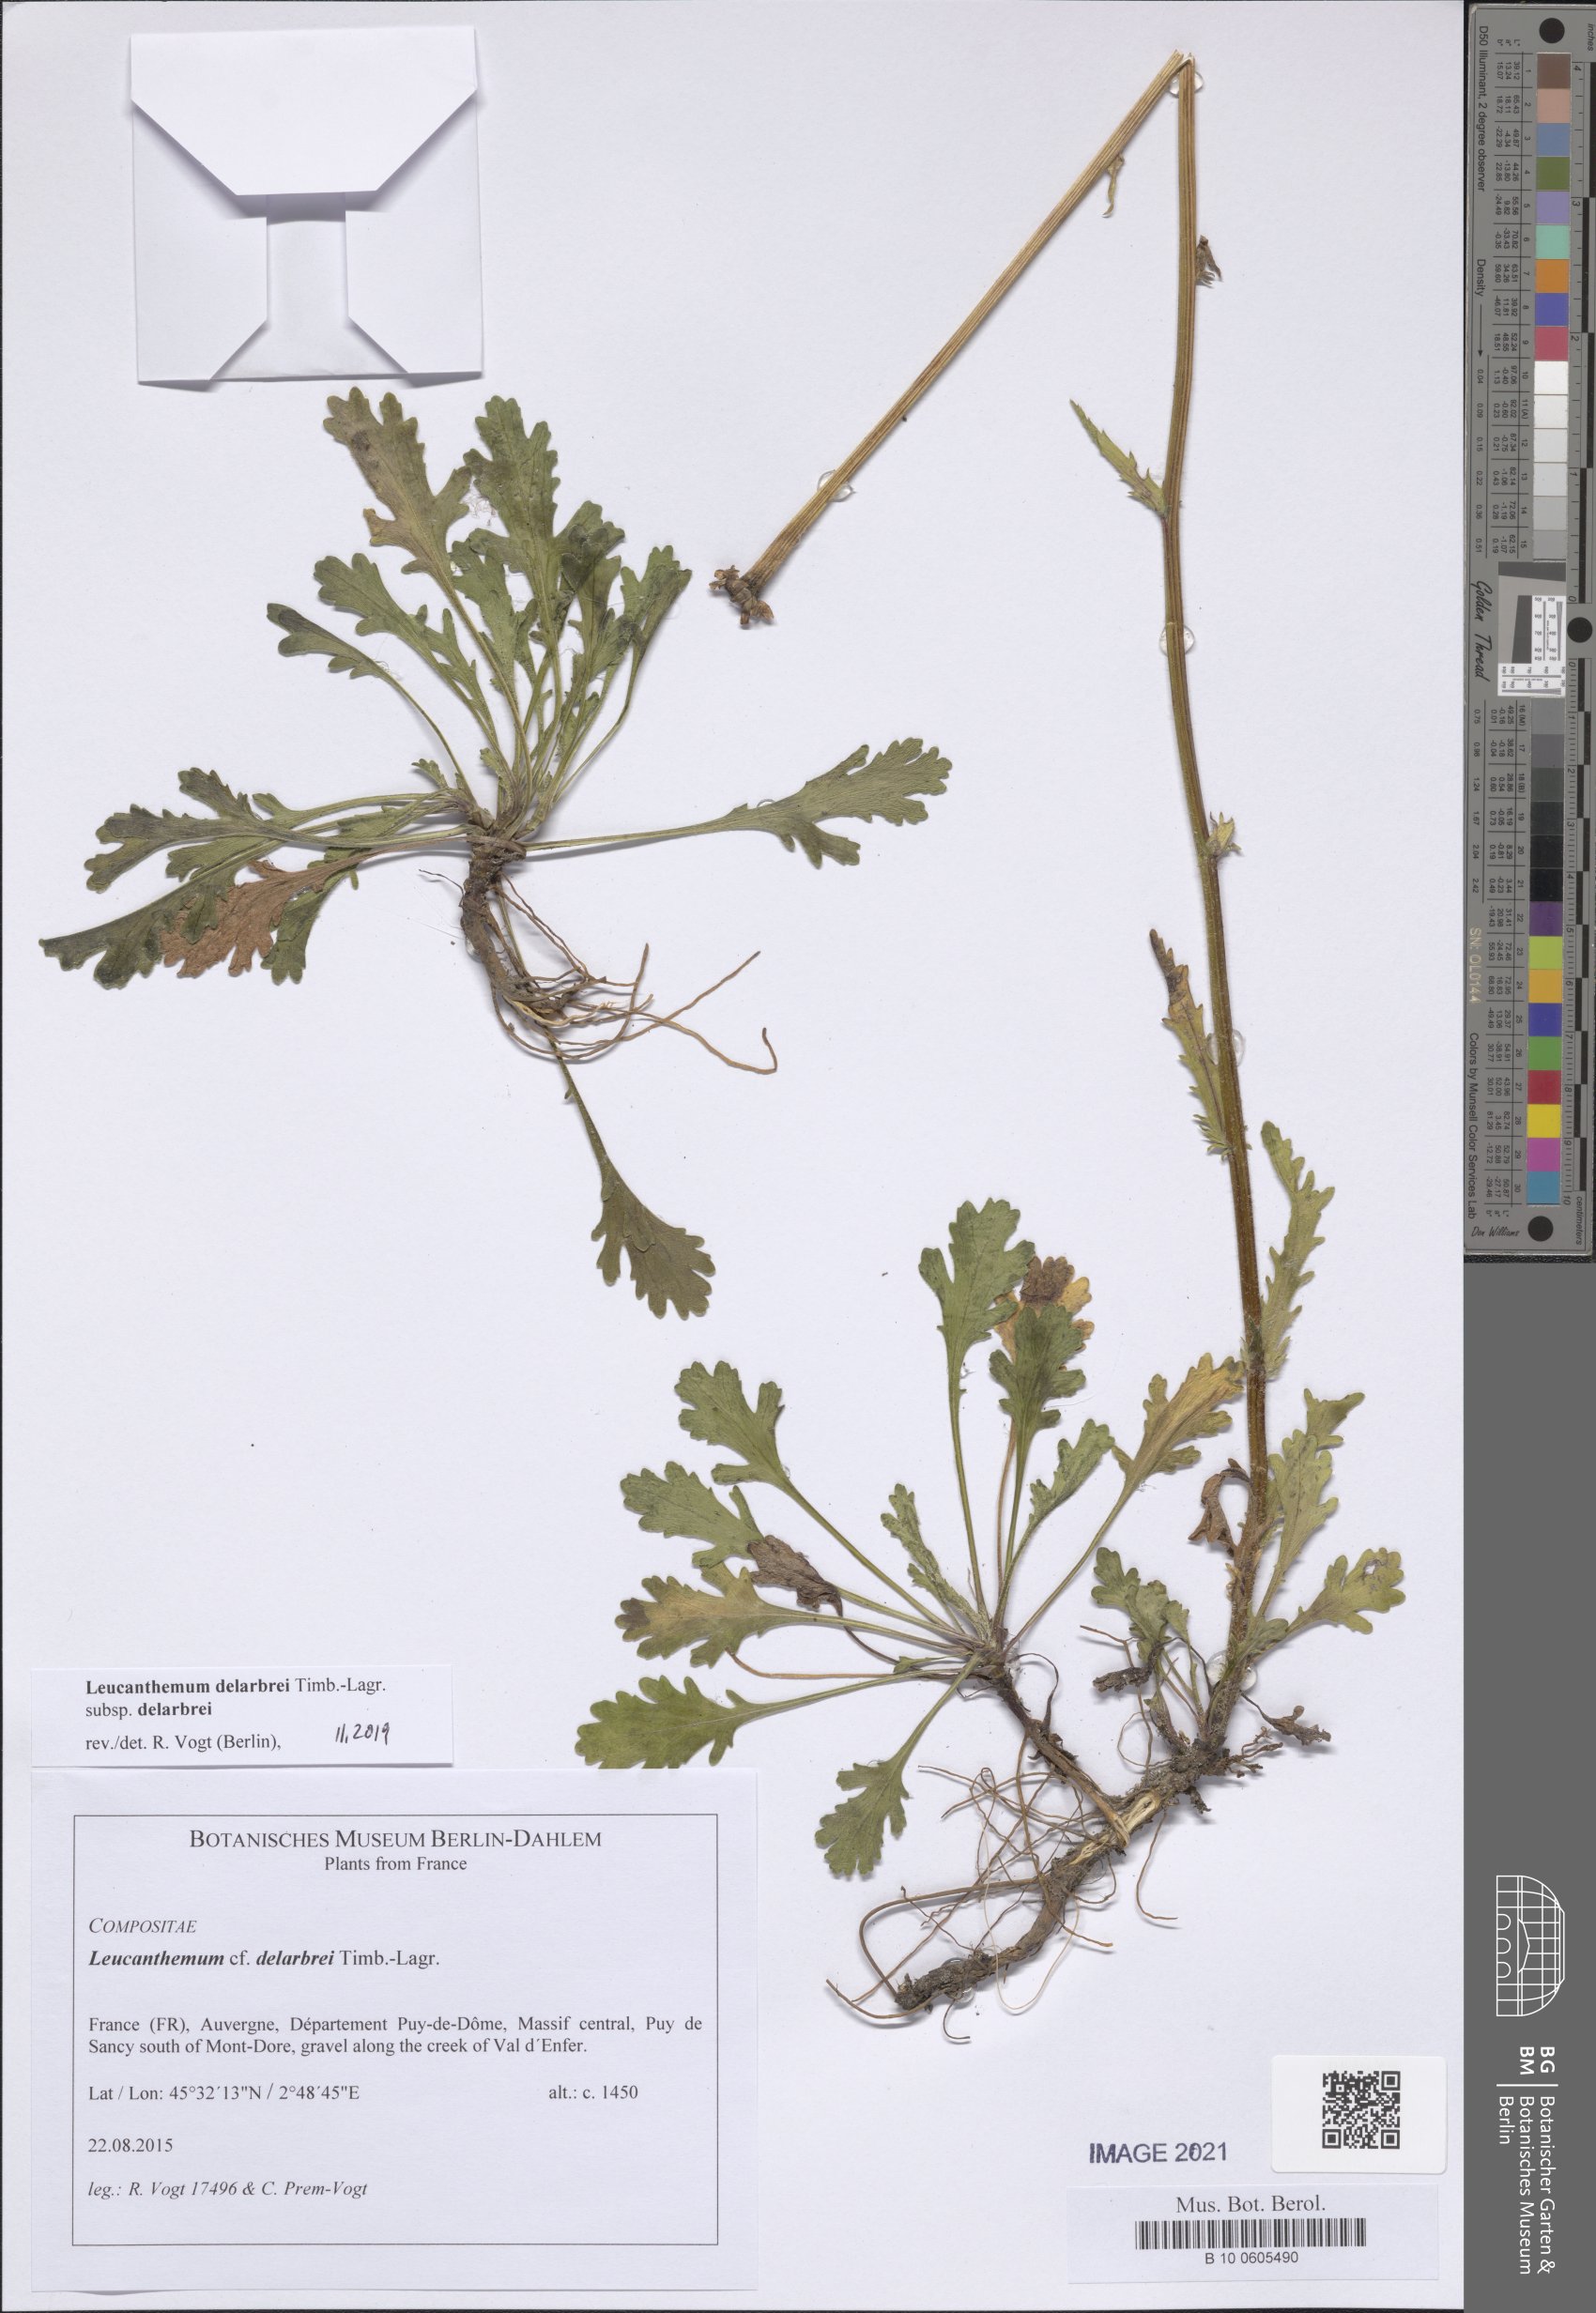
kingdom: Plantae
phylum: Tracheophyta
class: Magnoliopsida
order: Asterales
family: Asteraceae
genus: Leucanthemum
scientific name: Leucanthemum delarbrei
